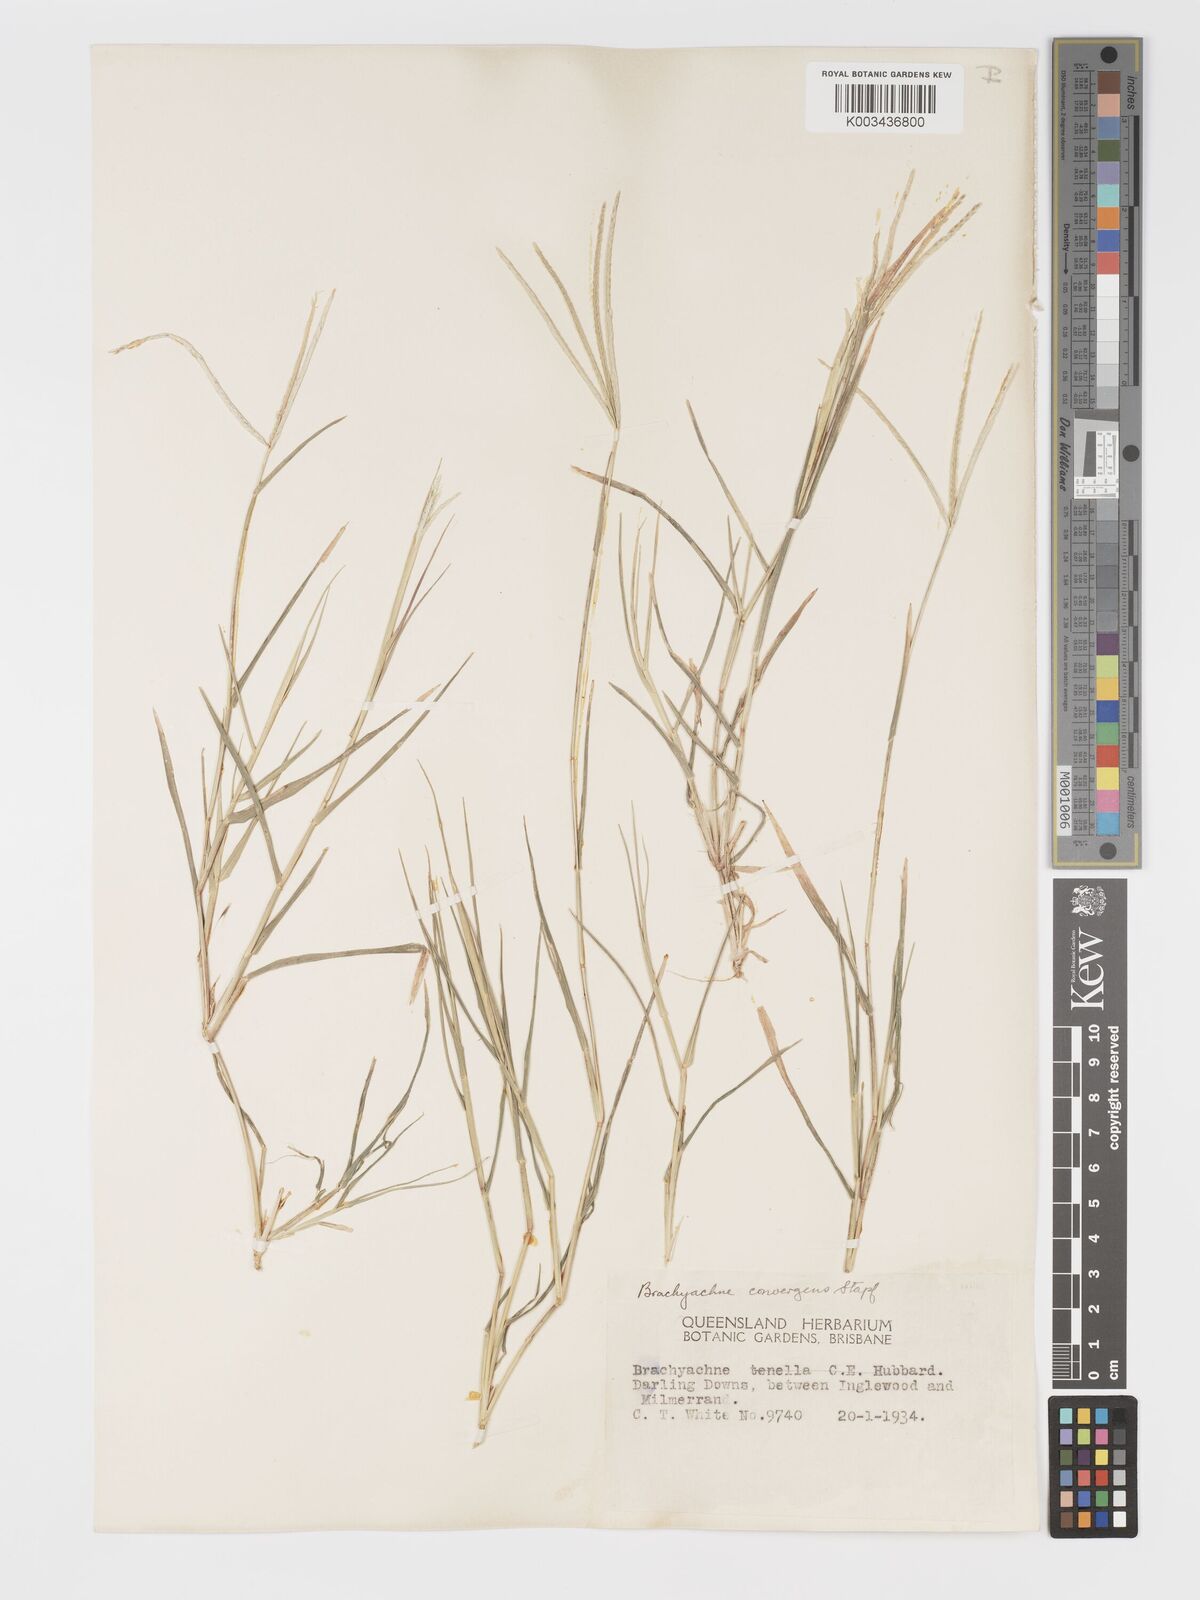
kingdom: Plantae
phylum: Tracheophyta
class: Liliopsida
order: Poales
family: Poaceae
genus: Cynodon
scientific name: Cynodon convergens
